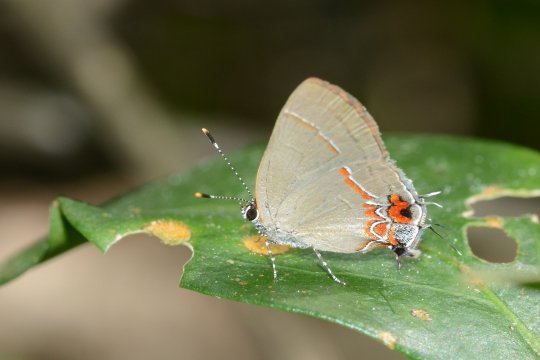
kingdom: Animalia
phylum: Arthropoda
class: Insecta
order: Lepidoptera
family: Lycaenidae
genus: Calycopis
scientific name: Calycopis isobeon
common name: Dusky-blue Groundstreak
